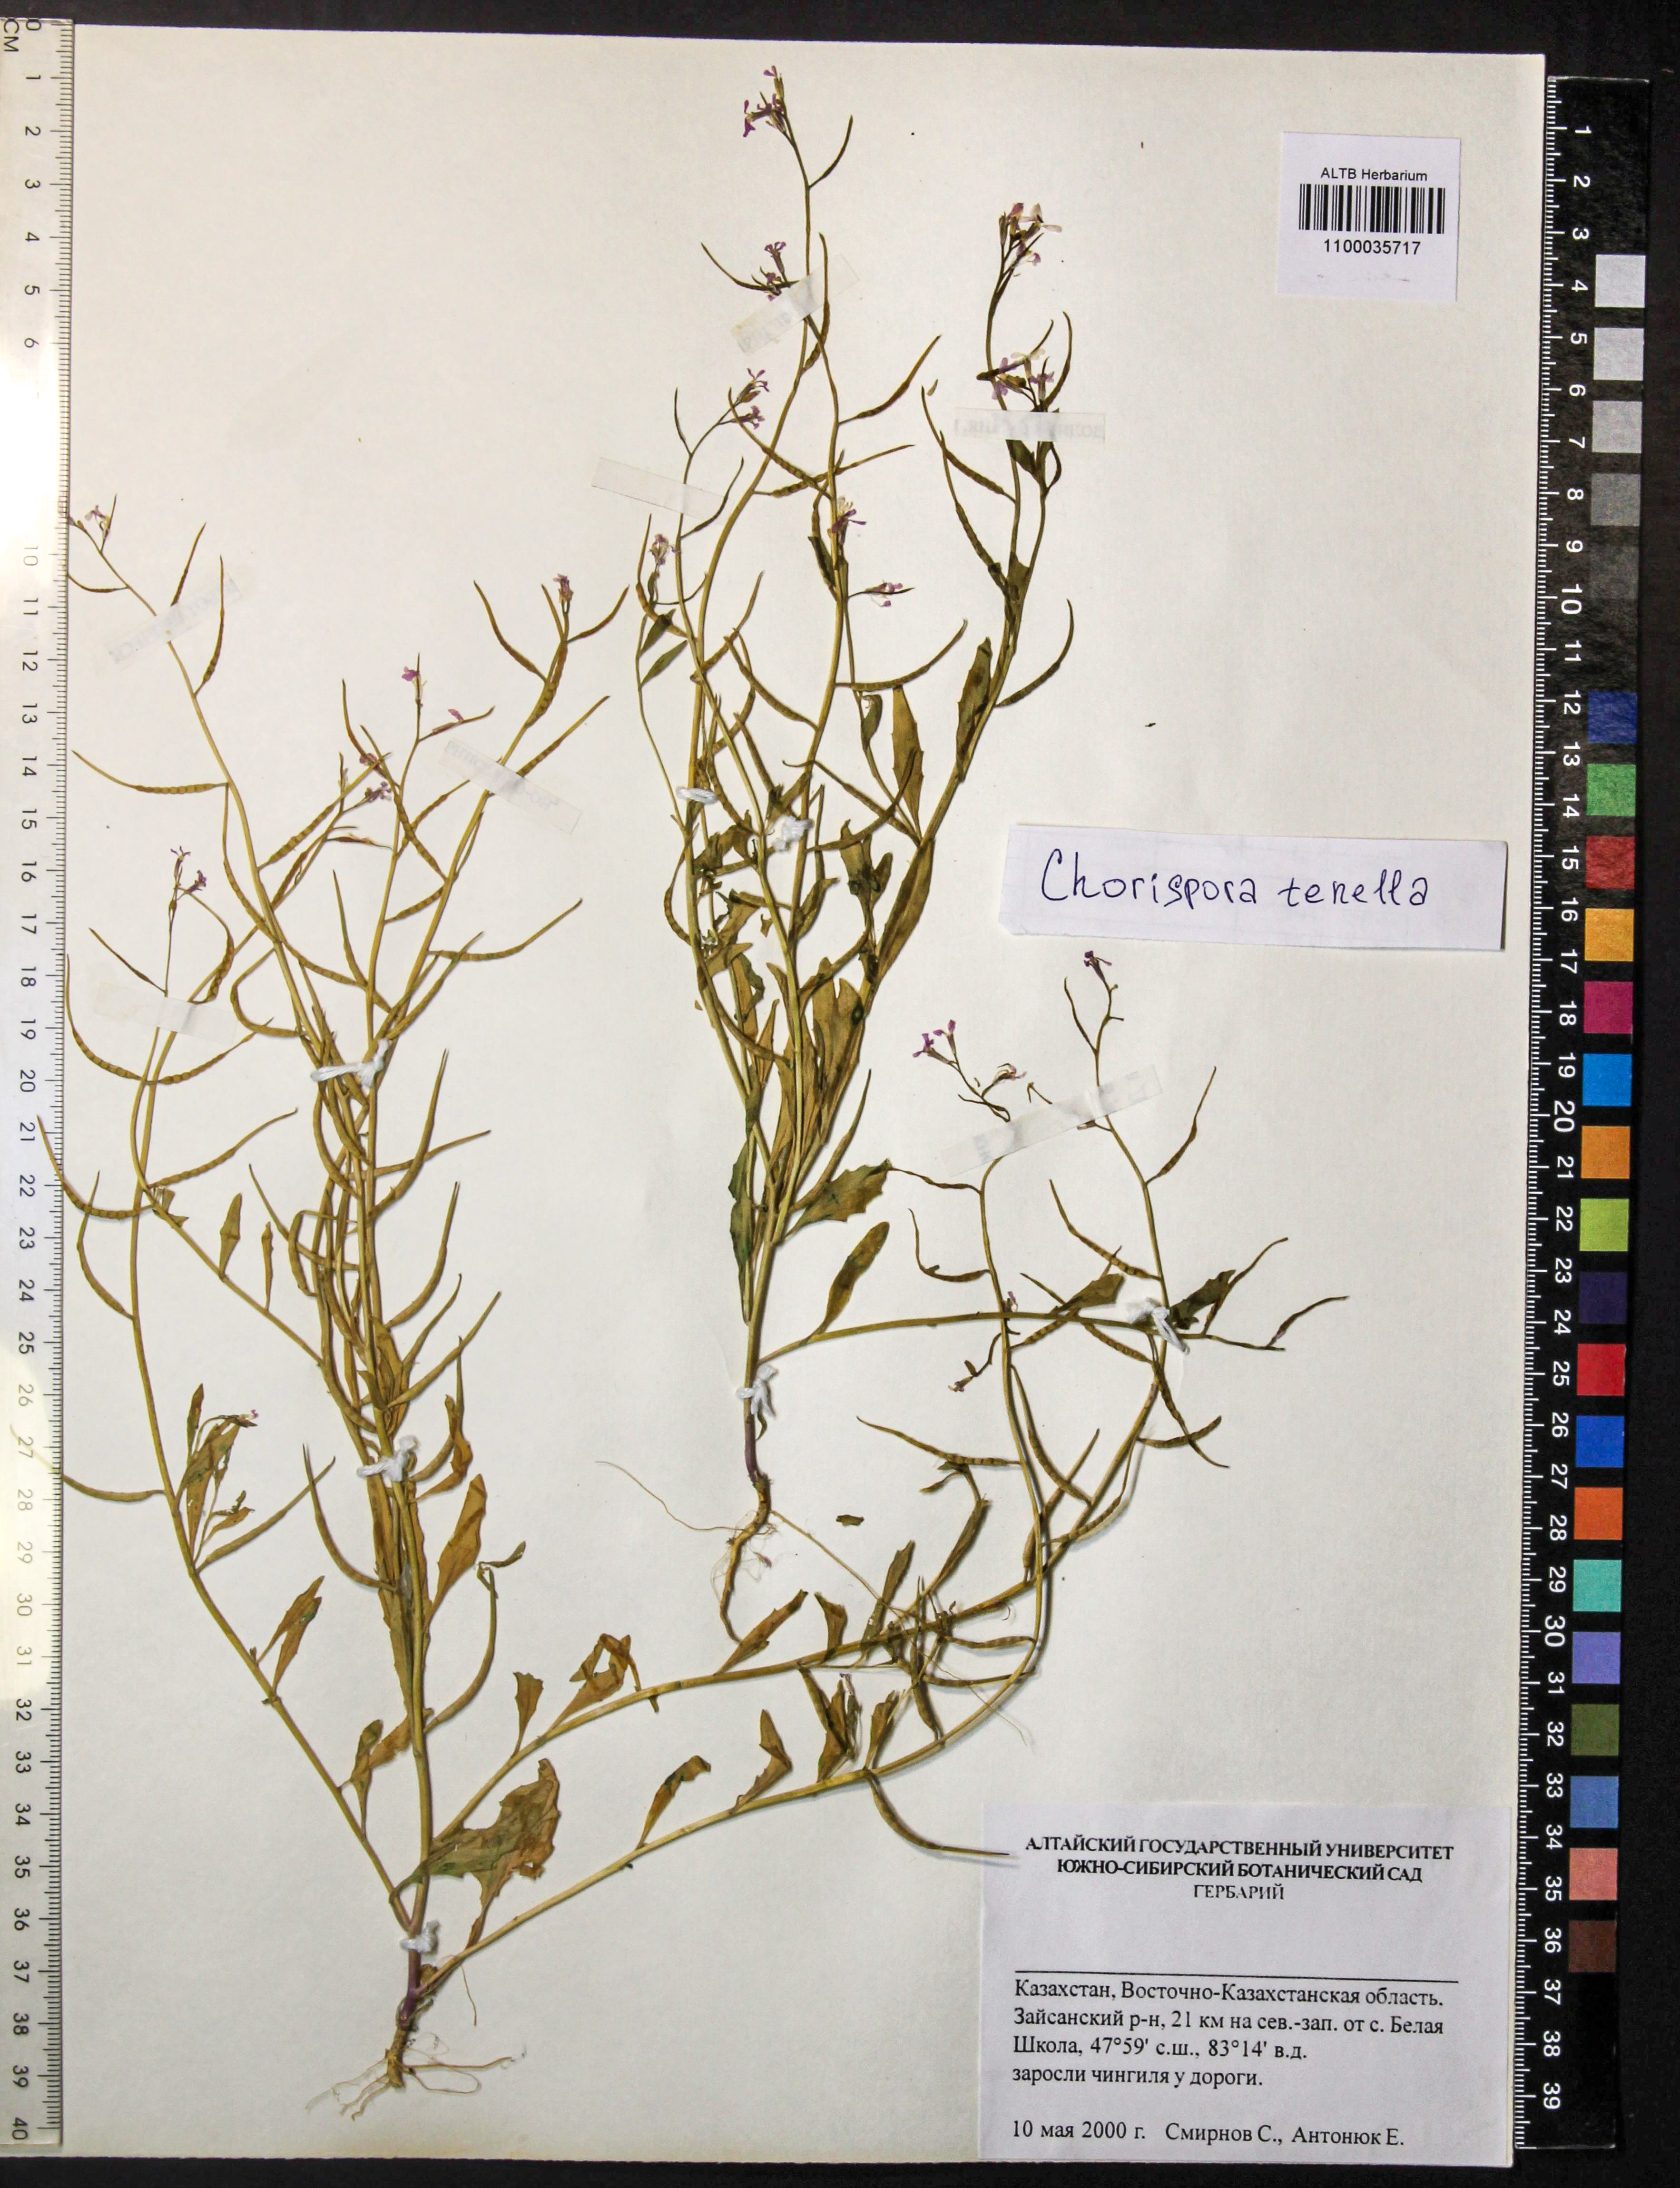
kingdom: Plantae
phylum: Tracheophyta
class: Magnoliopsida
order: Brassicales
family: Brassicaceae
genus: Chorispora
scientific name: Chorispora tenella
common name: Crossflower
